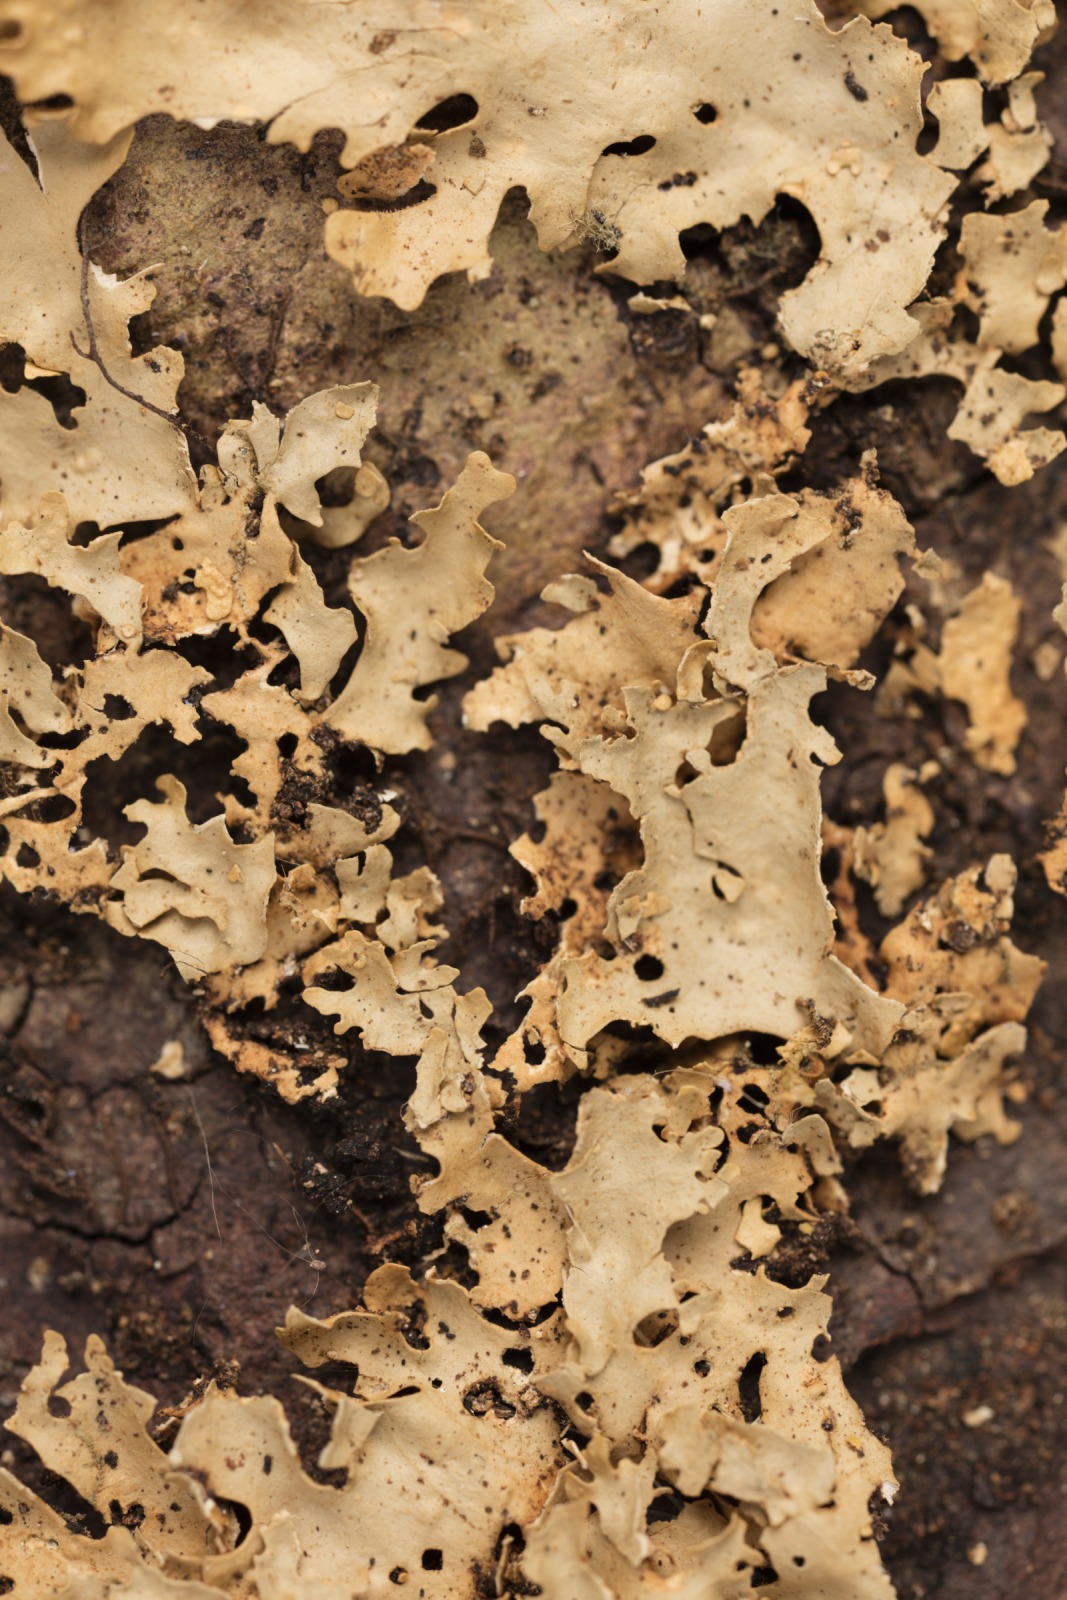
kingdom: Fungi
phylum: Ascomycota
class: Lecanoromycetes
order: Peltigerales
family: Lobariaceae
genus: Sticta
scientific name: Sticta babingtonii
